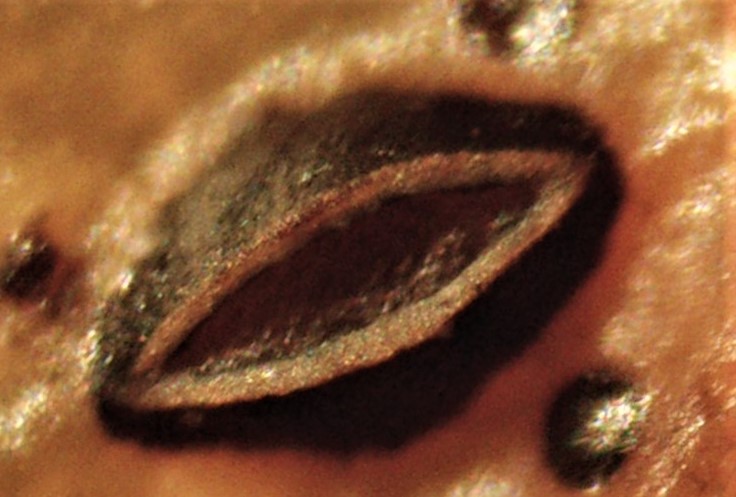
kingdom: Fungi
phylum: Ascomycota
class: Leotiomycetes
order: Rhytismatales
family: Rhytismataceae
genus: Hypoderma
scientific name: Hypoderma hederae
